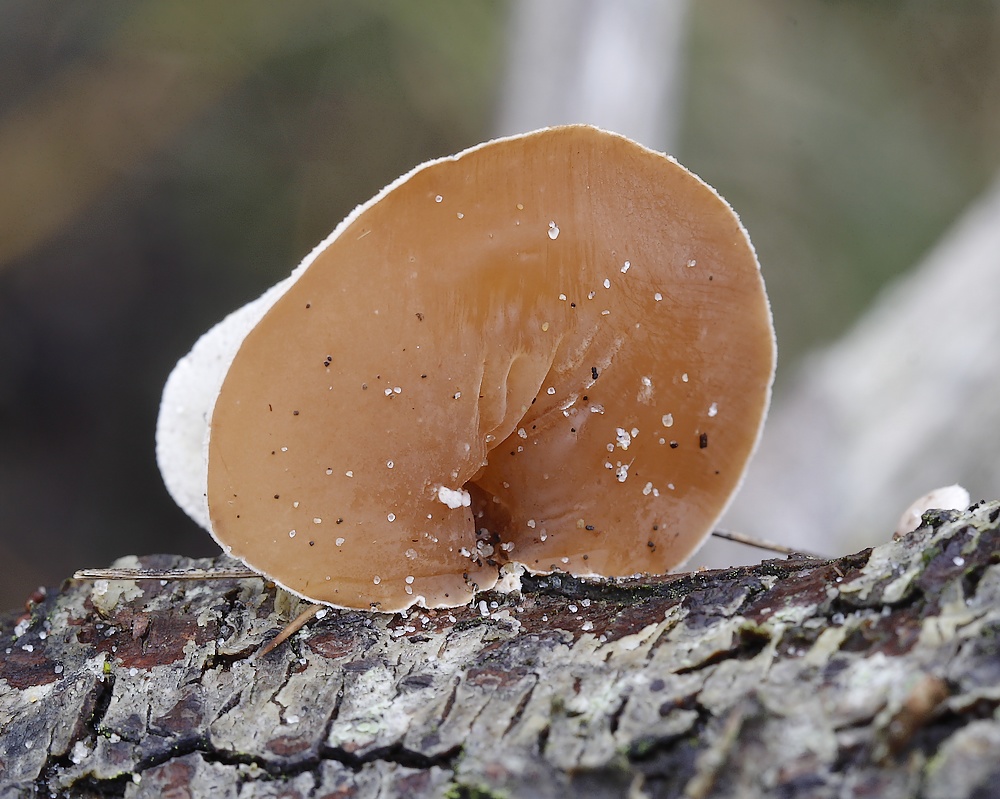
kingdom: Fungi
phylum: Basidiomycota
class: Agaricomycetes
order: Agaricales
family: Schizophyllaceae
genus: Schizophyllum
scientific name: Schizophyllum amplum
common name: poppel-hængeøre
